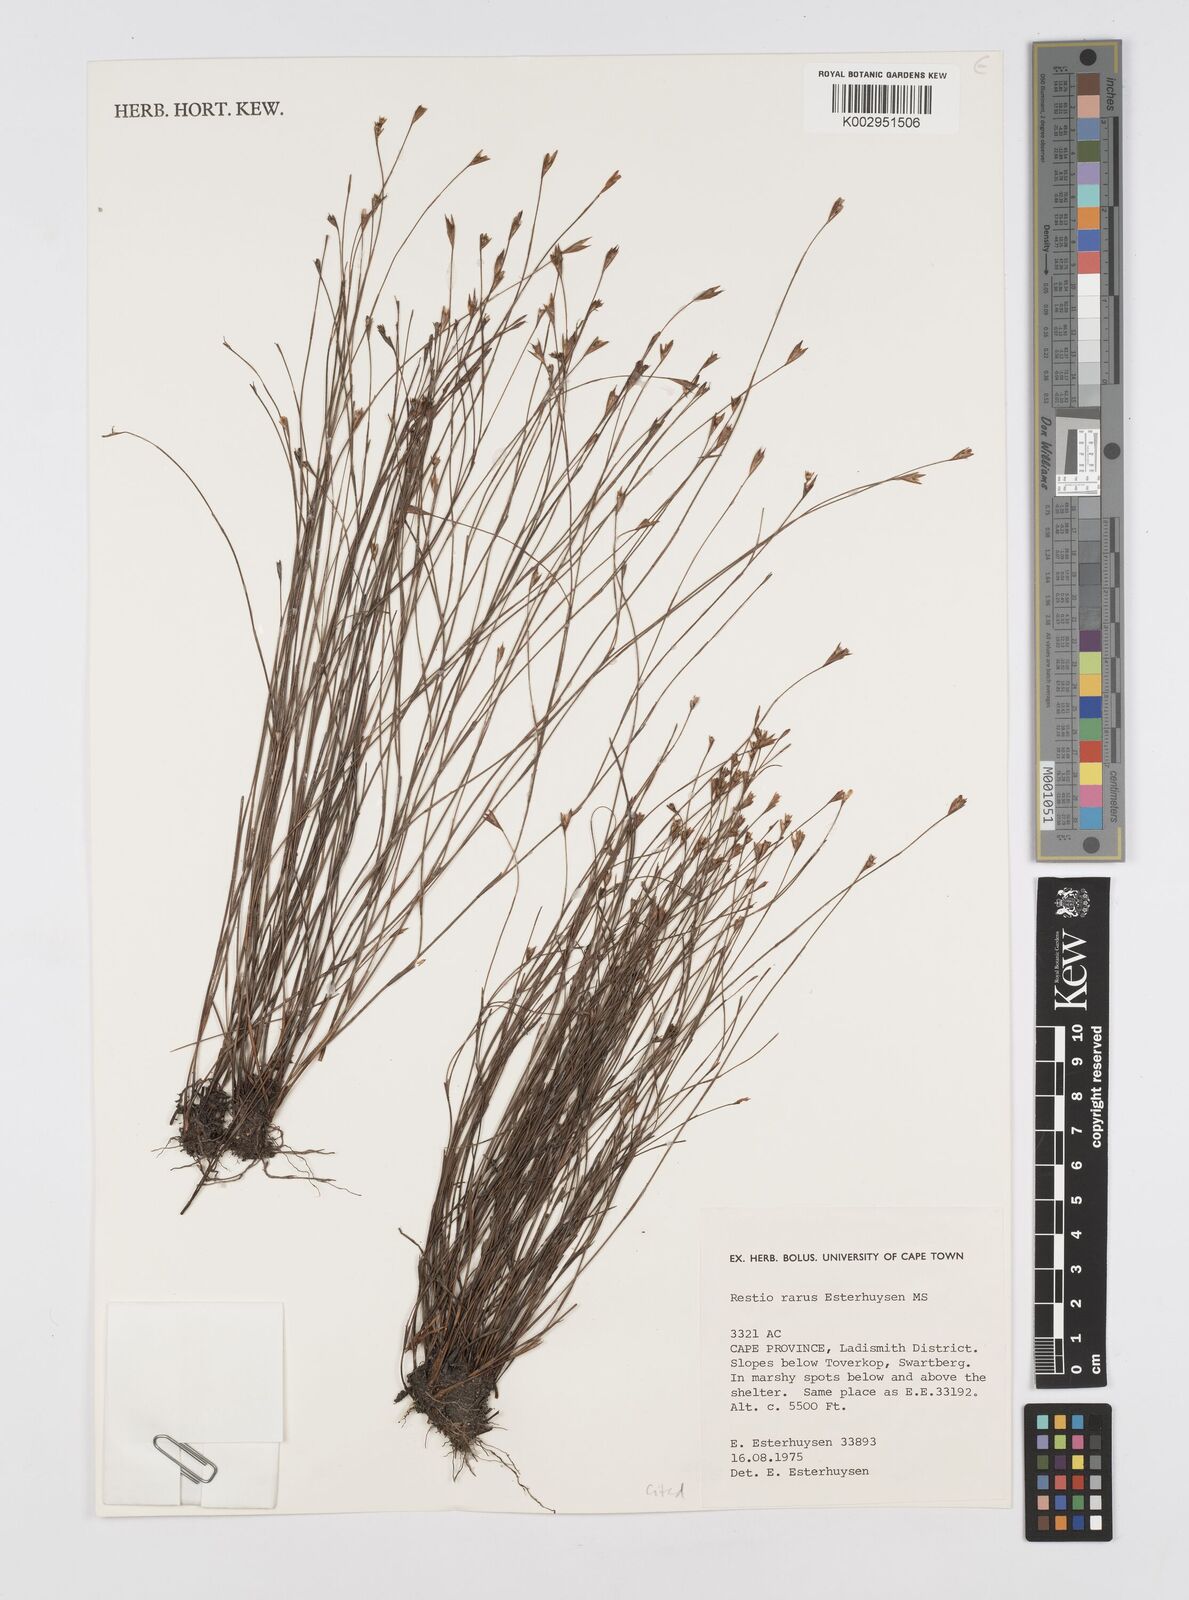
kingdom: Plantae
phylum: Tracheophyta
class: Liliopsida
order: Poales
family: Restionaceae
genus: Restio
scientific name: Restio rarus
